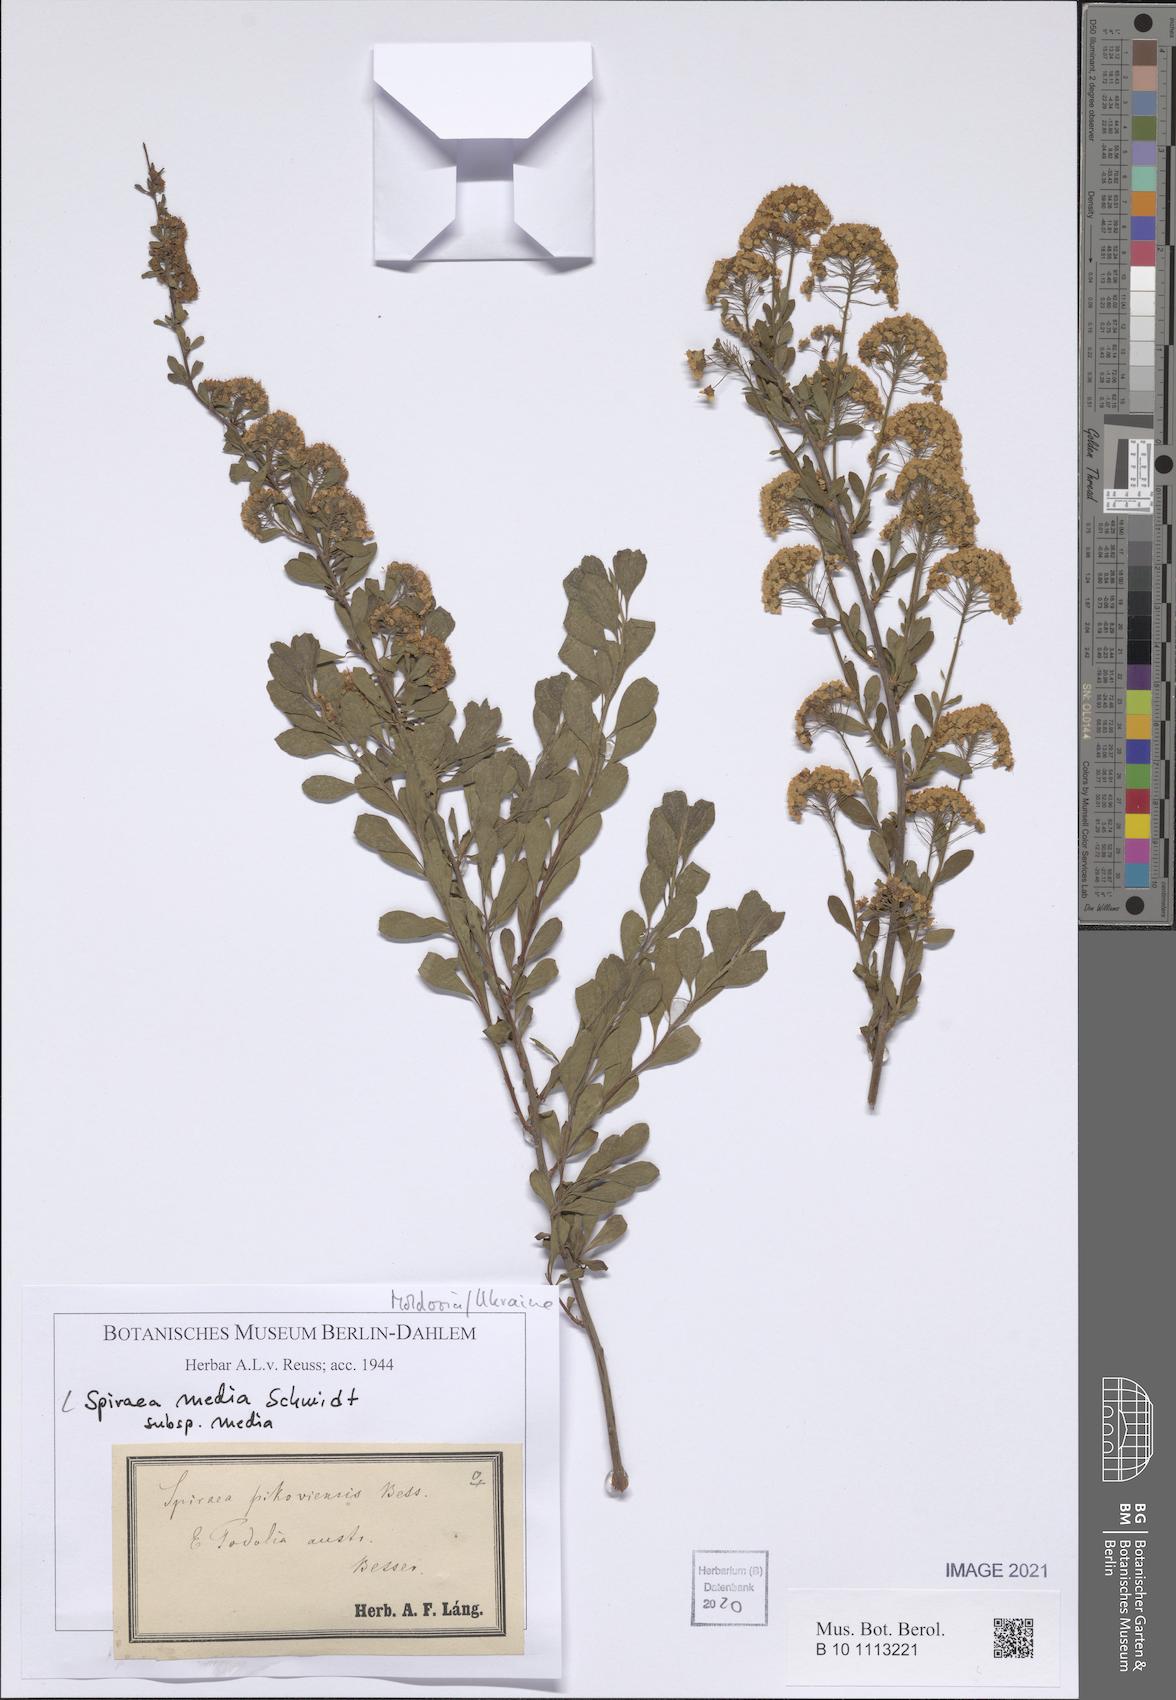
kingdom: Plantae
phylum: Tracheophyta
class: Magnoliopsida
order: Rosales
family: Rosaceae
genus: Spiraea
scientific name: Spiraea media
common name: Russian spiraea
